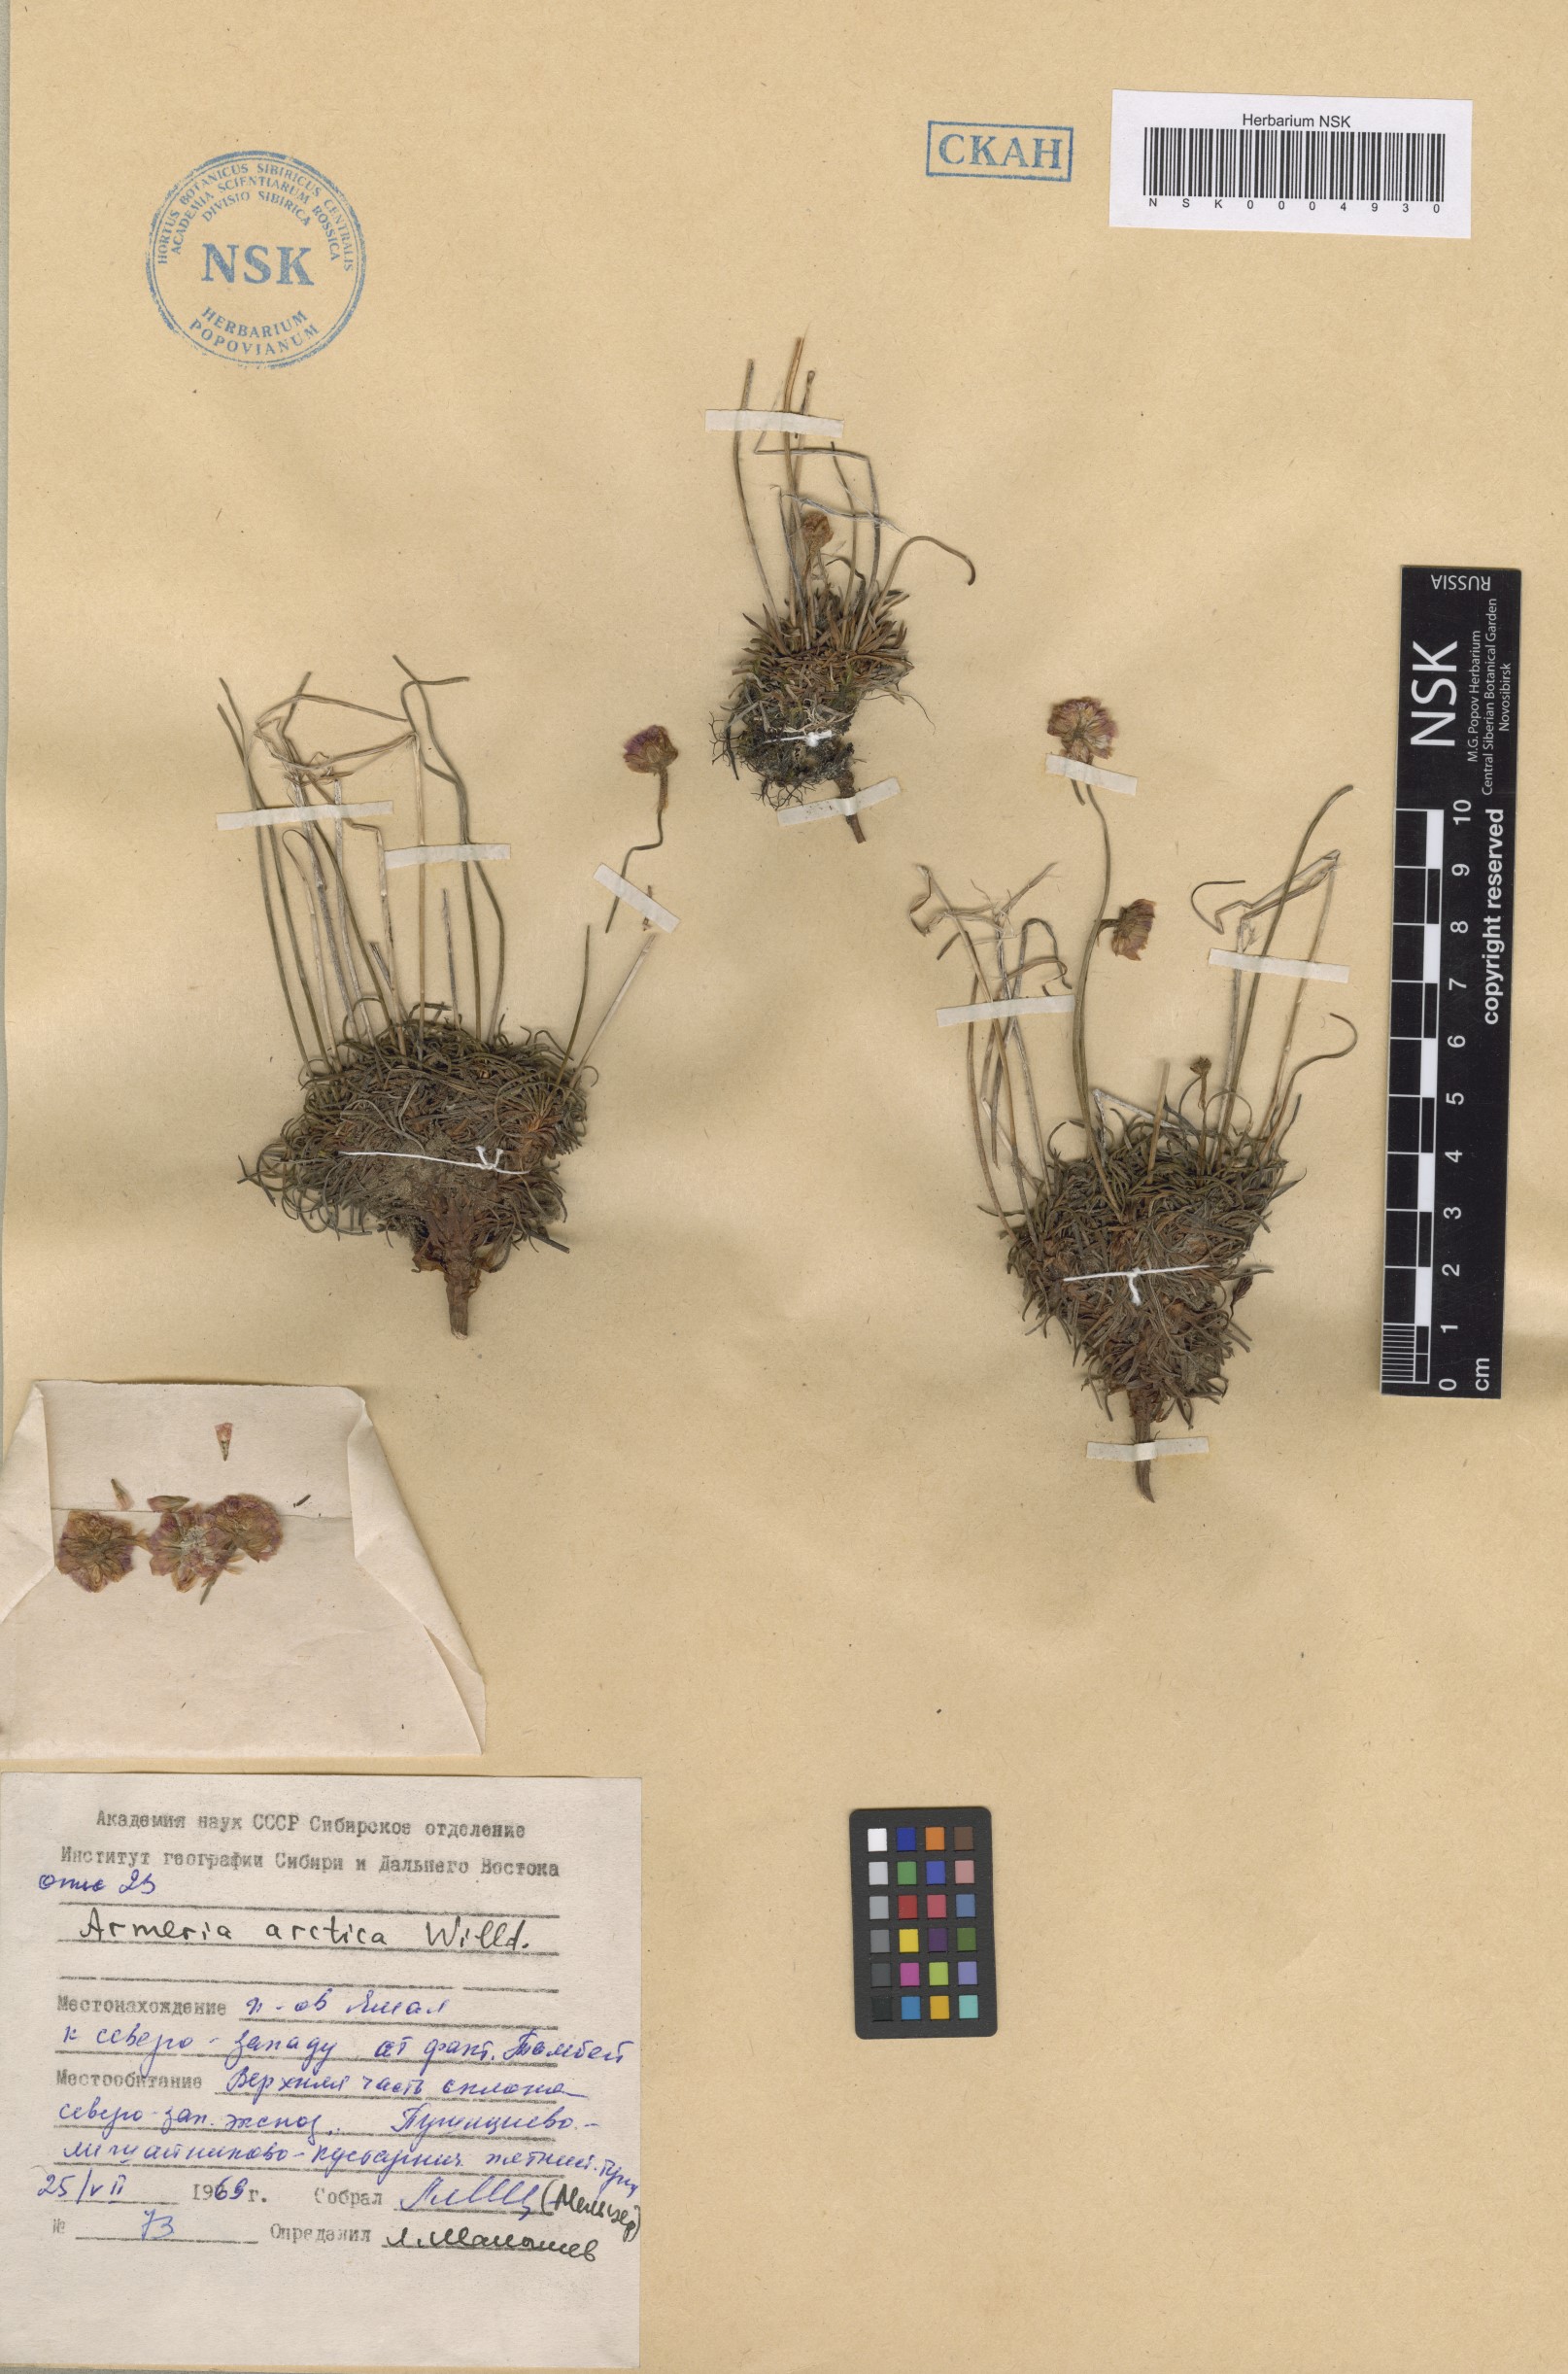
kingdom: Plantae
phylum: Tracheophyta
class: Magnoliopsida
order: Caryophyllales
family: Plumbaginaceae
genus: Armeria
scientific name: Armeria maritima
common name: Thrift
